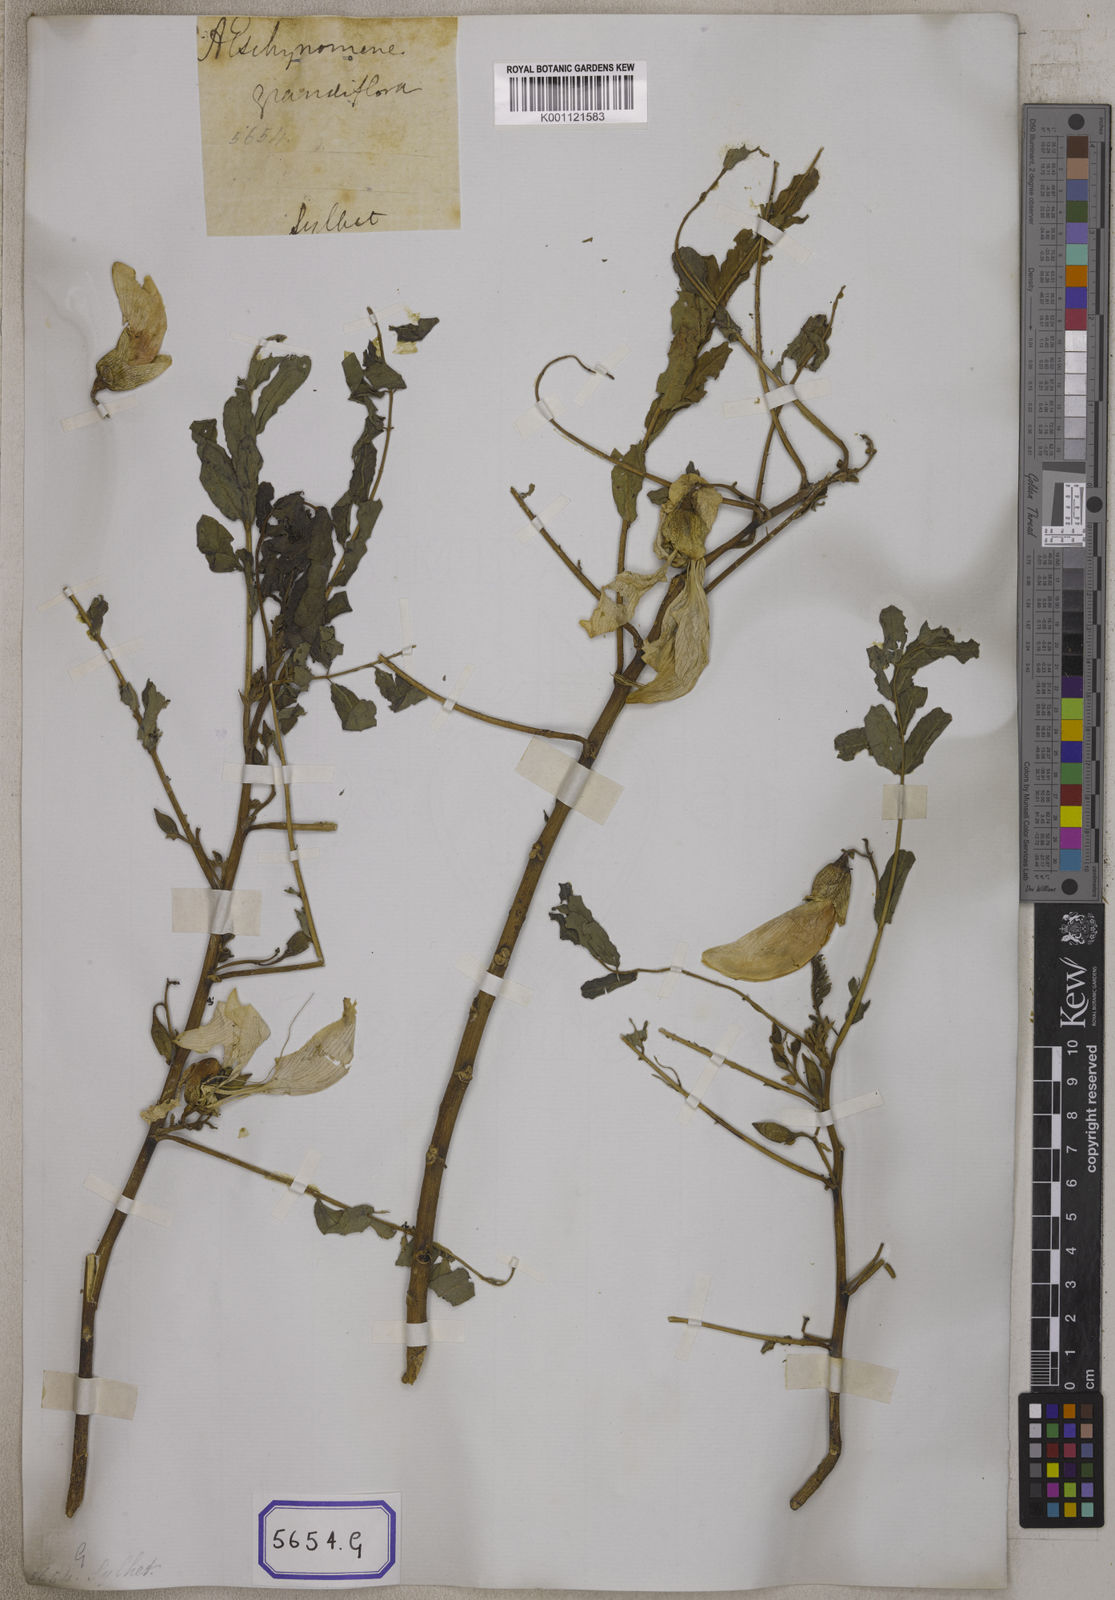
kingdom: Plantae
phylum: Tracheophyta
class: Magnoliopsida
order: Fabales
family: Fabaceae
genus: Sesbania
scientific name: Sesbania grandiflora
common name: Vegetable-hummingbird
